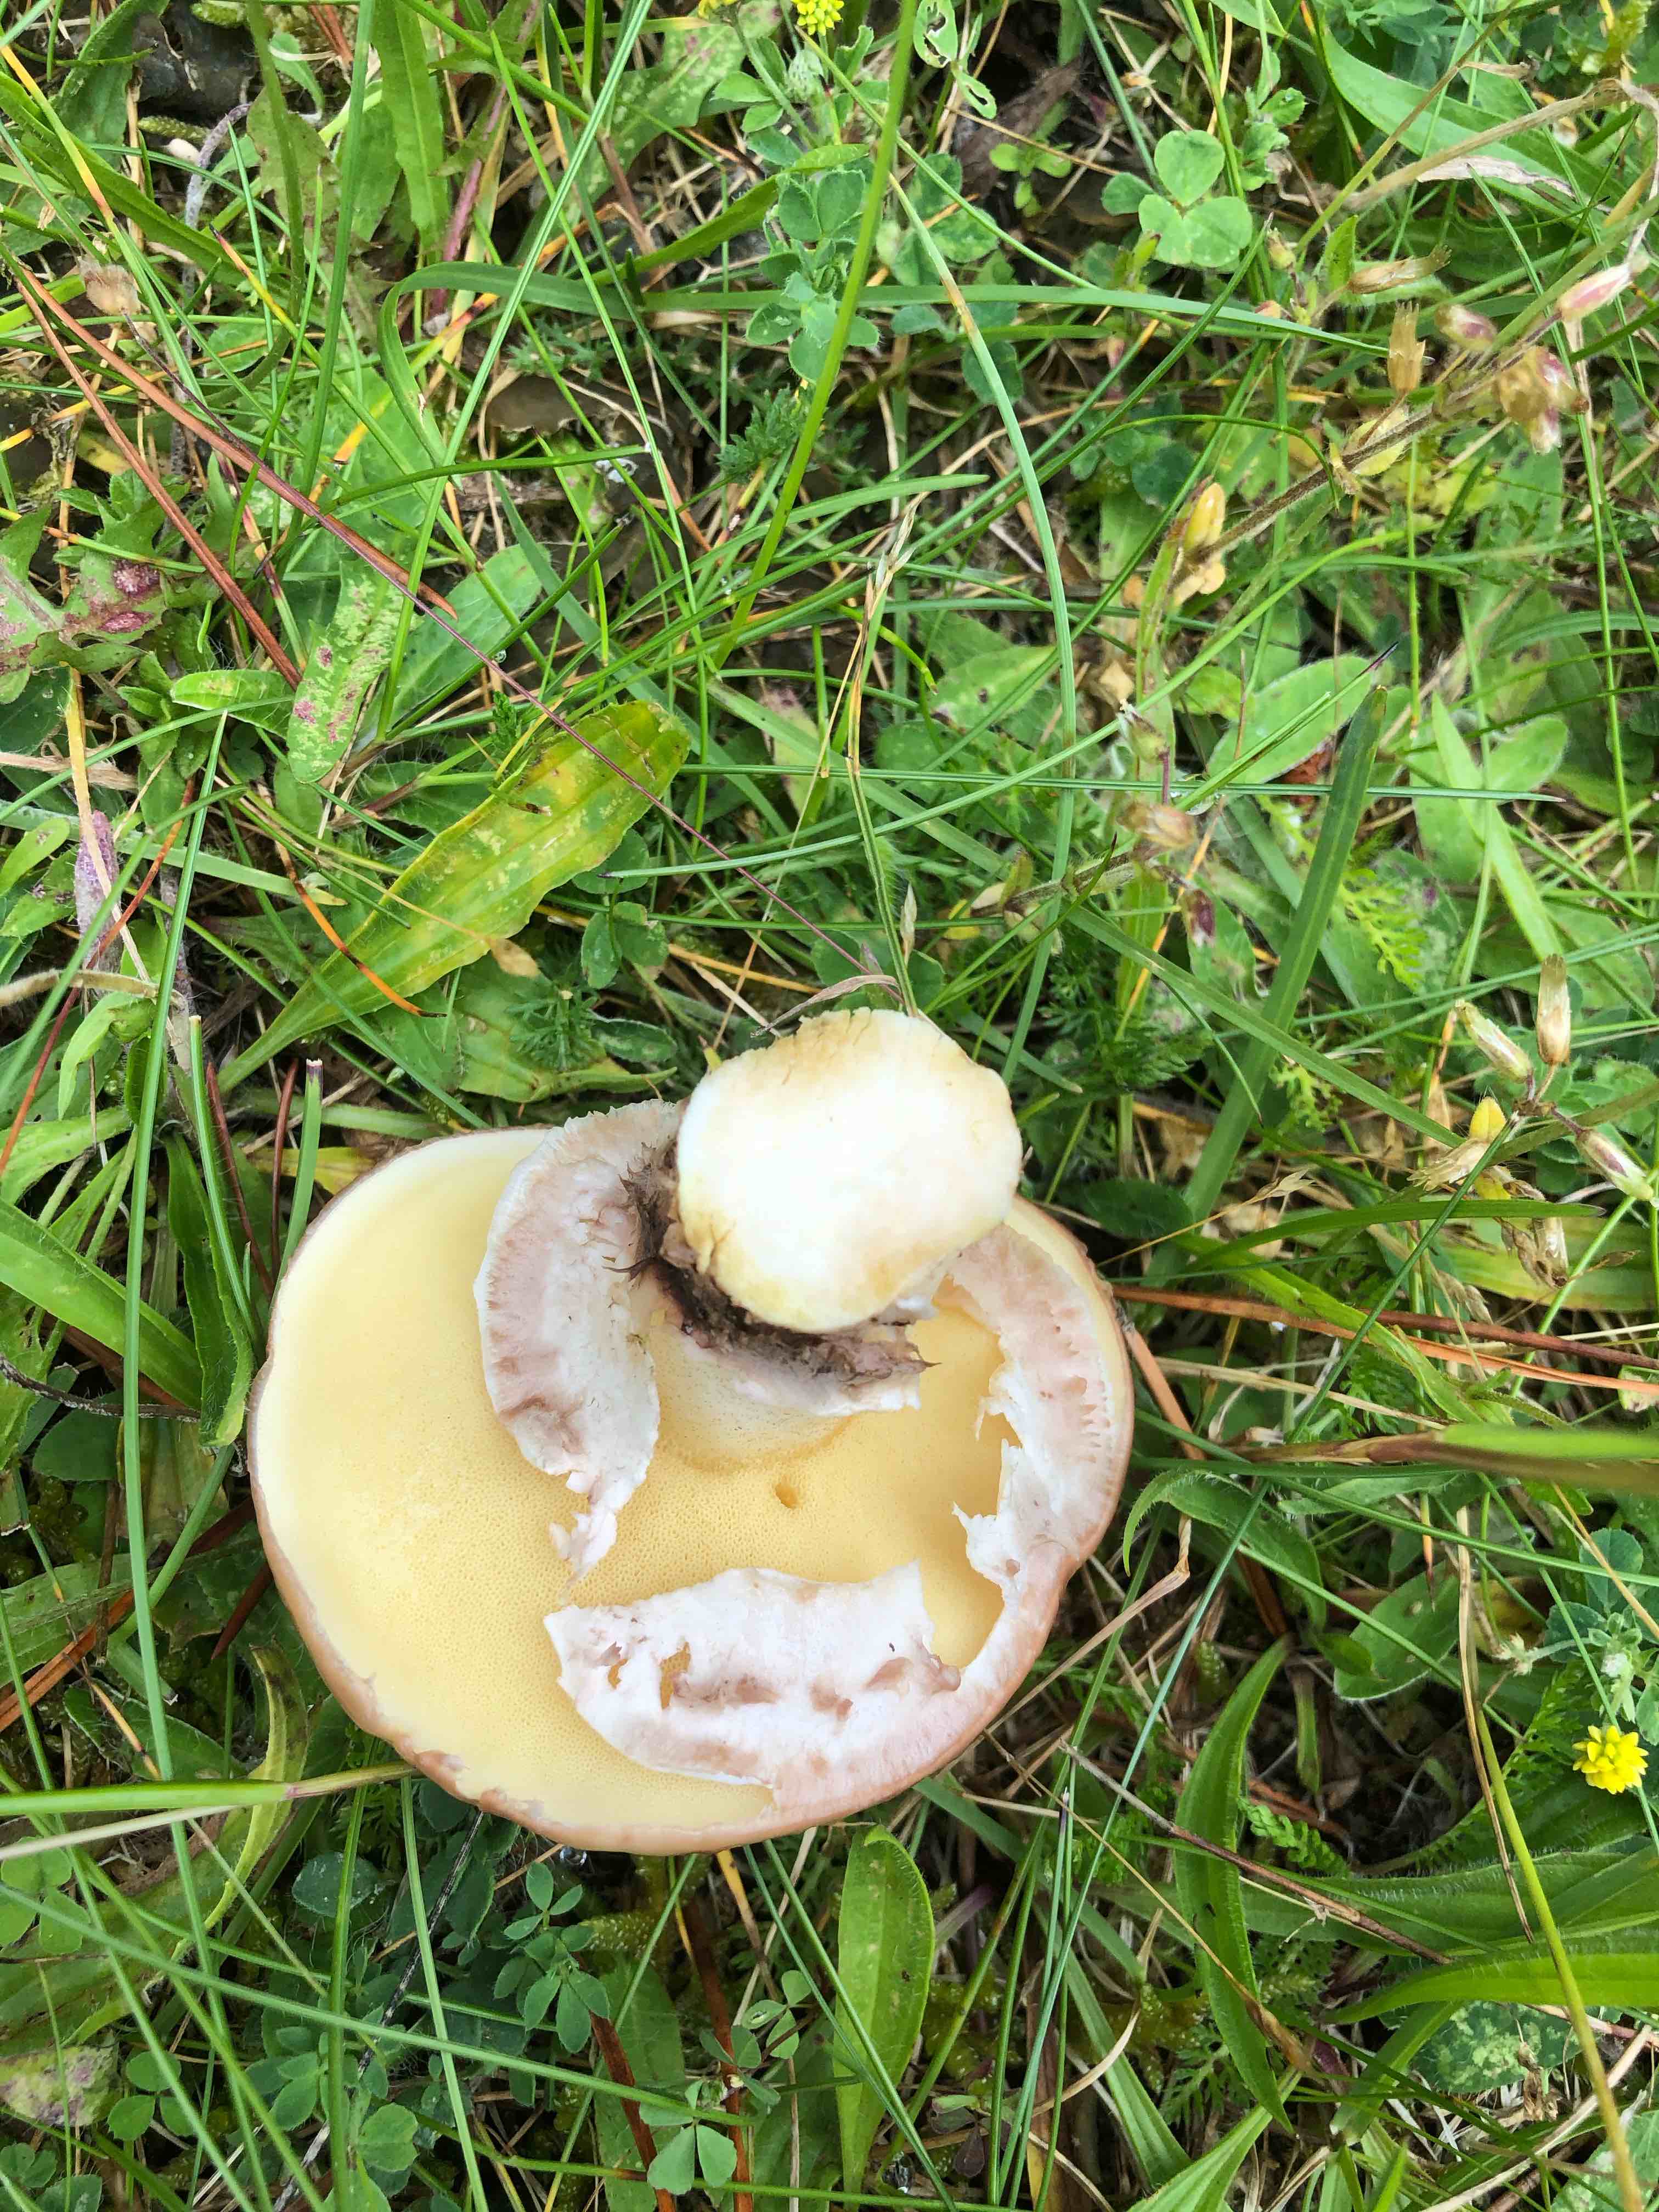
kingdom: Fungi
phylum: Basidiomycota
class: Agaricomycetes
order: Boletales
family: Suillaceae
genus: Suillus
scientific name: Suillus luteus
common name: brungul slimrørhat
